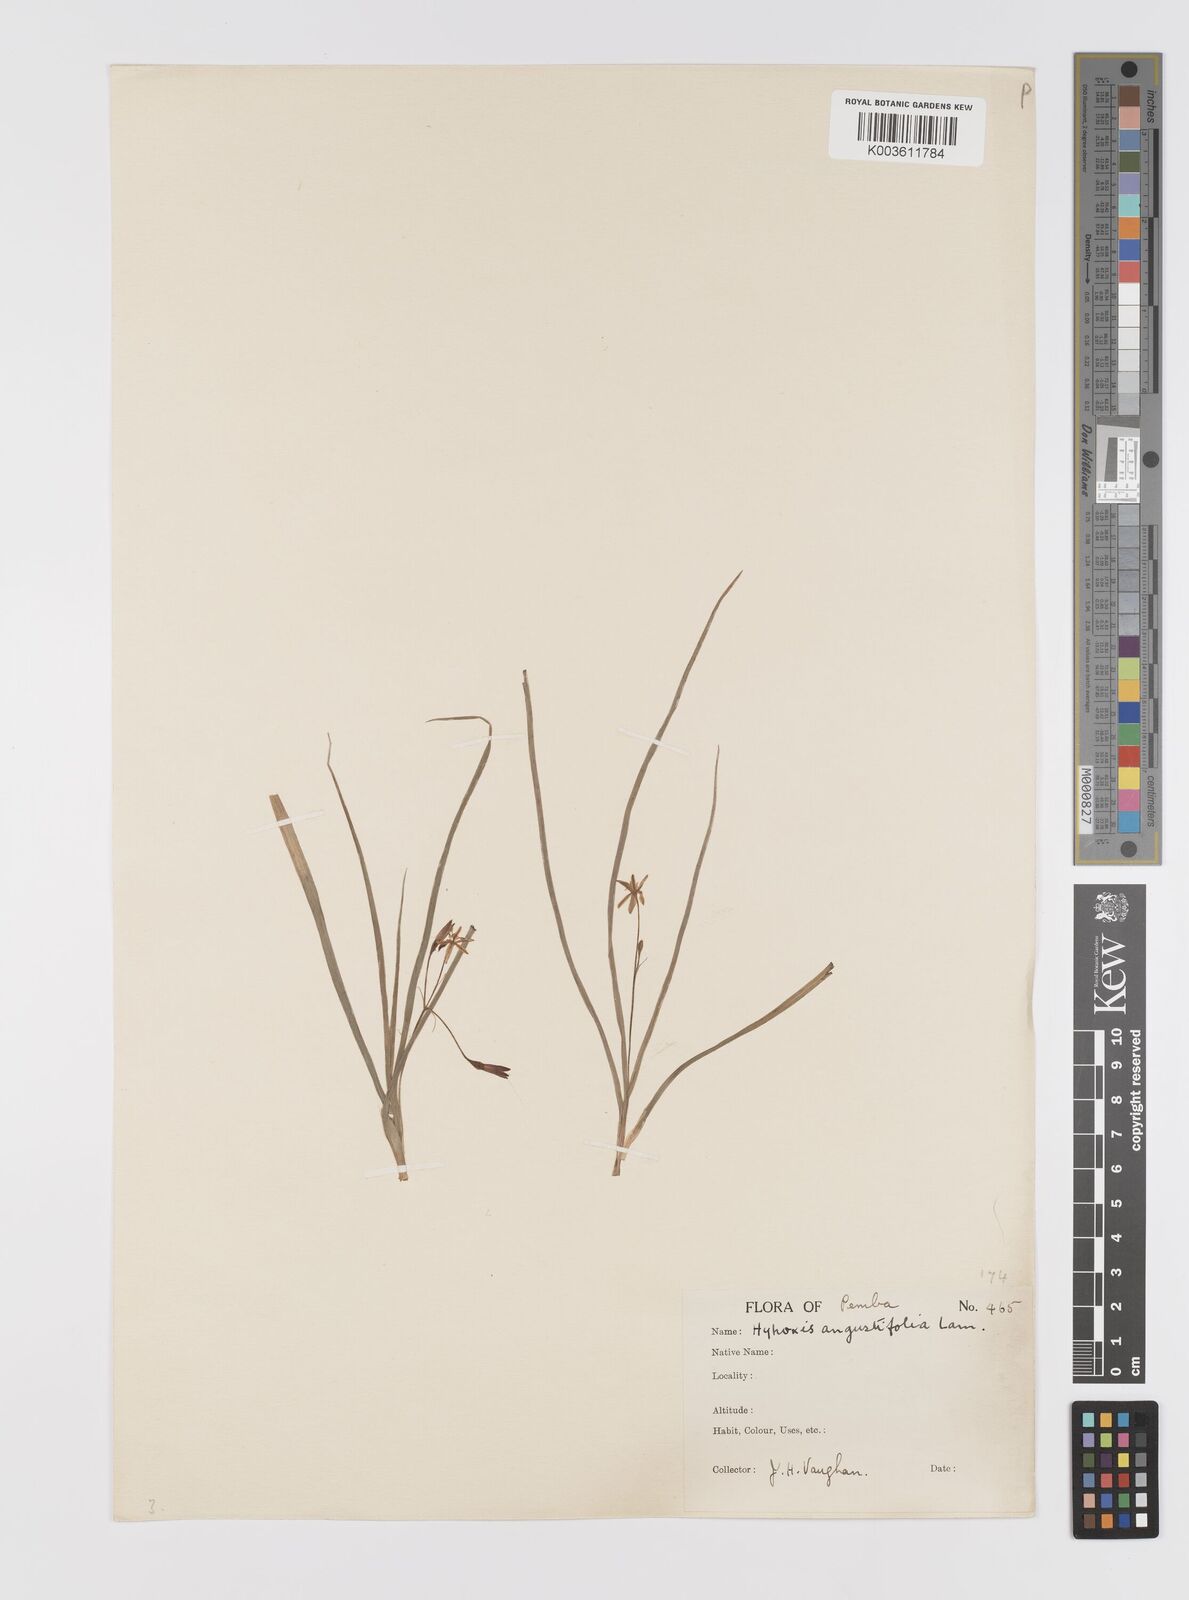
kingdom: Plantae
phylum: Tracheophyta
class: Liliopsida
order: Asparagales
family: Hypoxidaceae
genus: Hypoxis
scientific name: Hypoxis angustifolia
